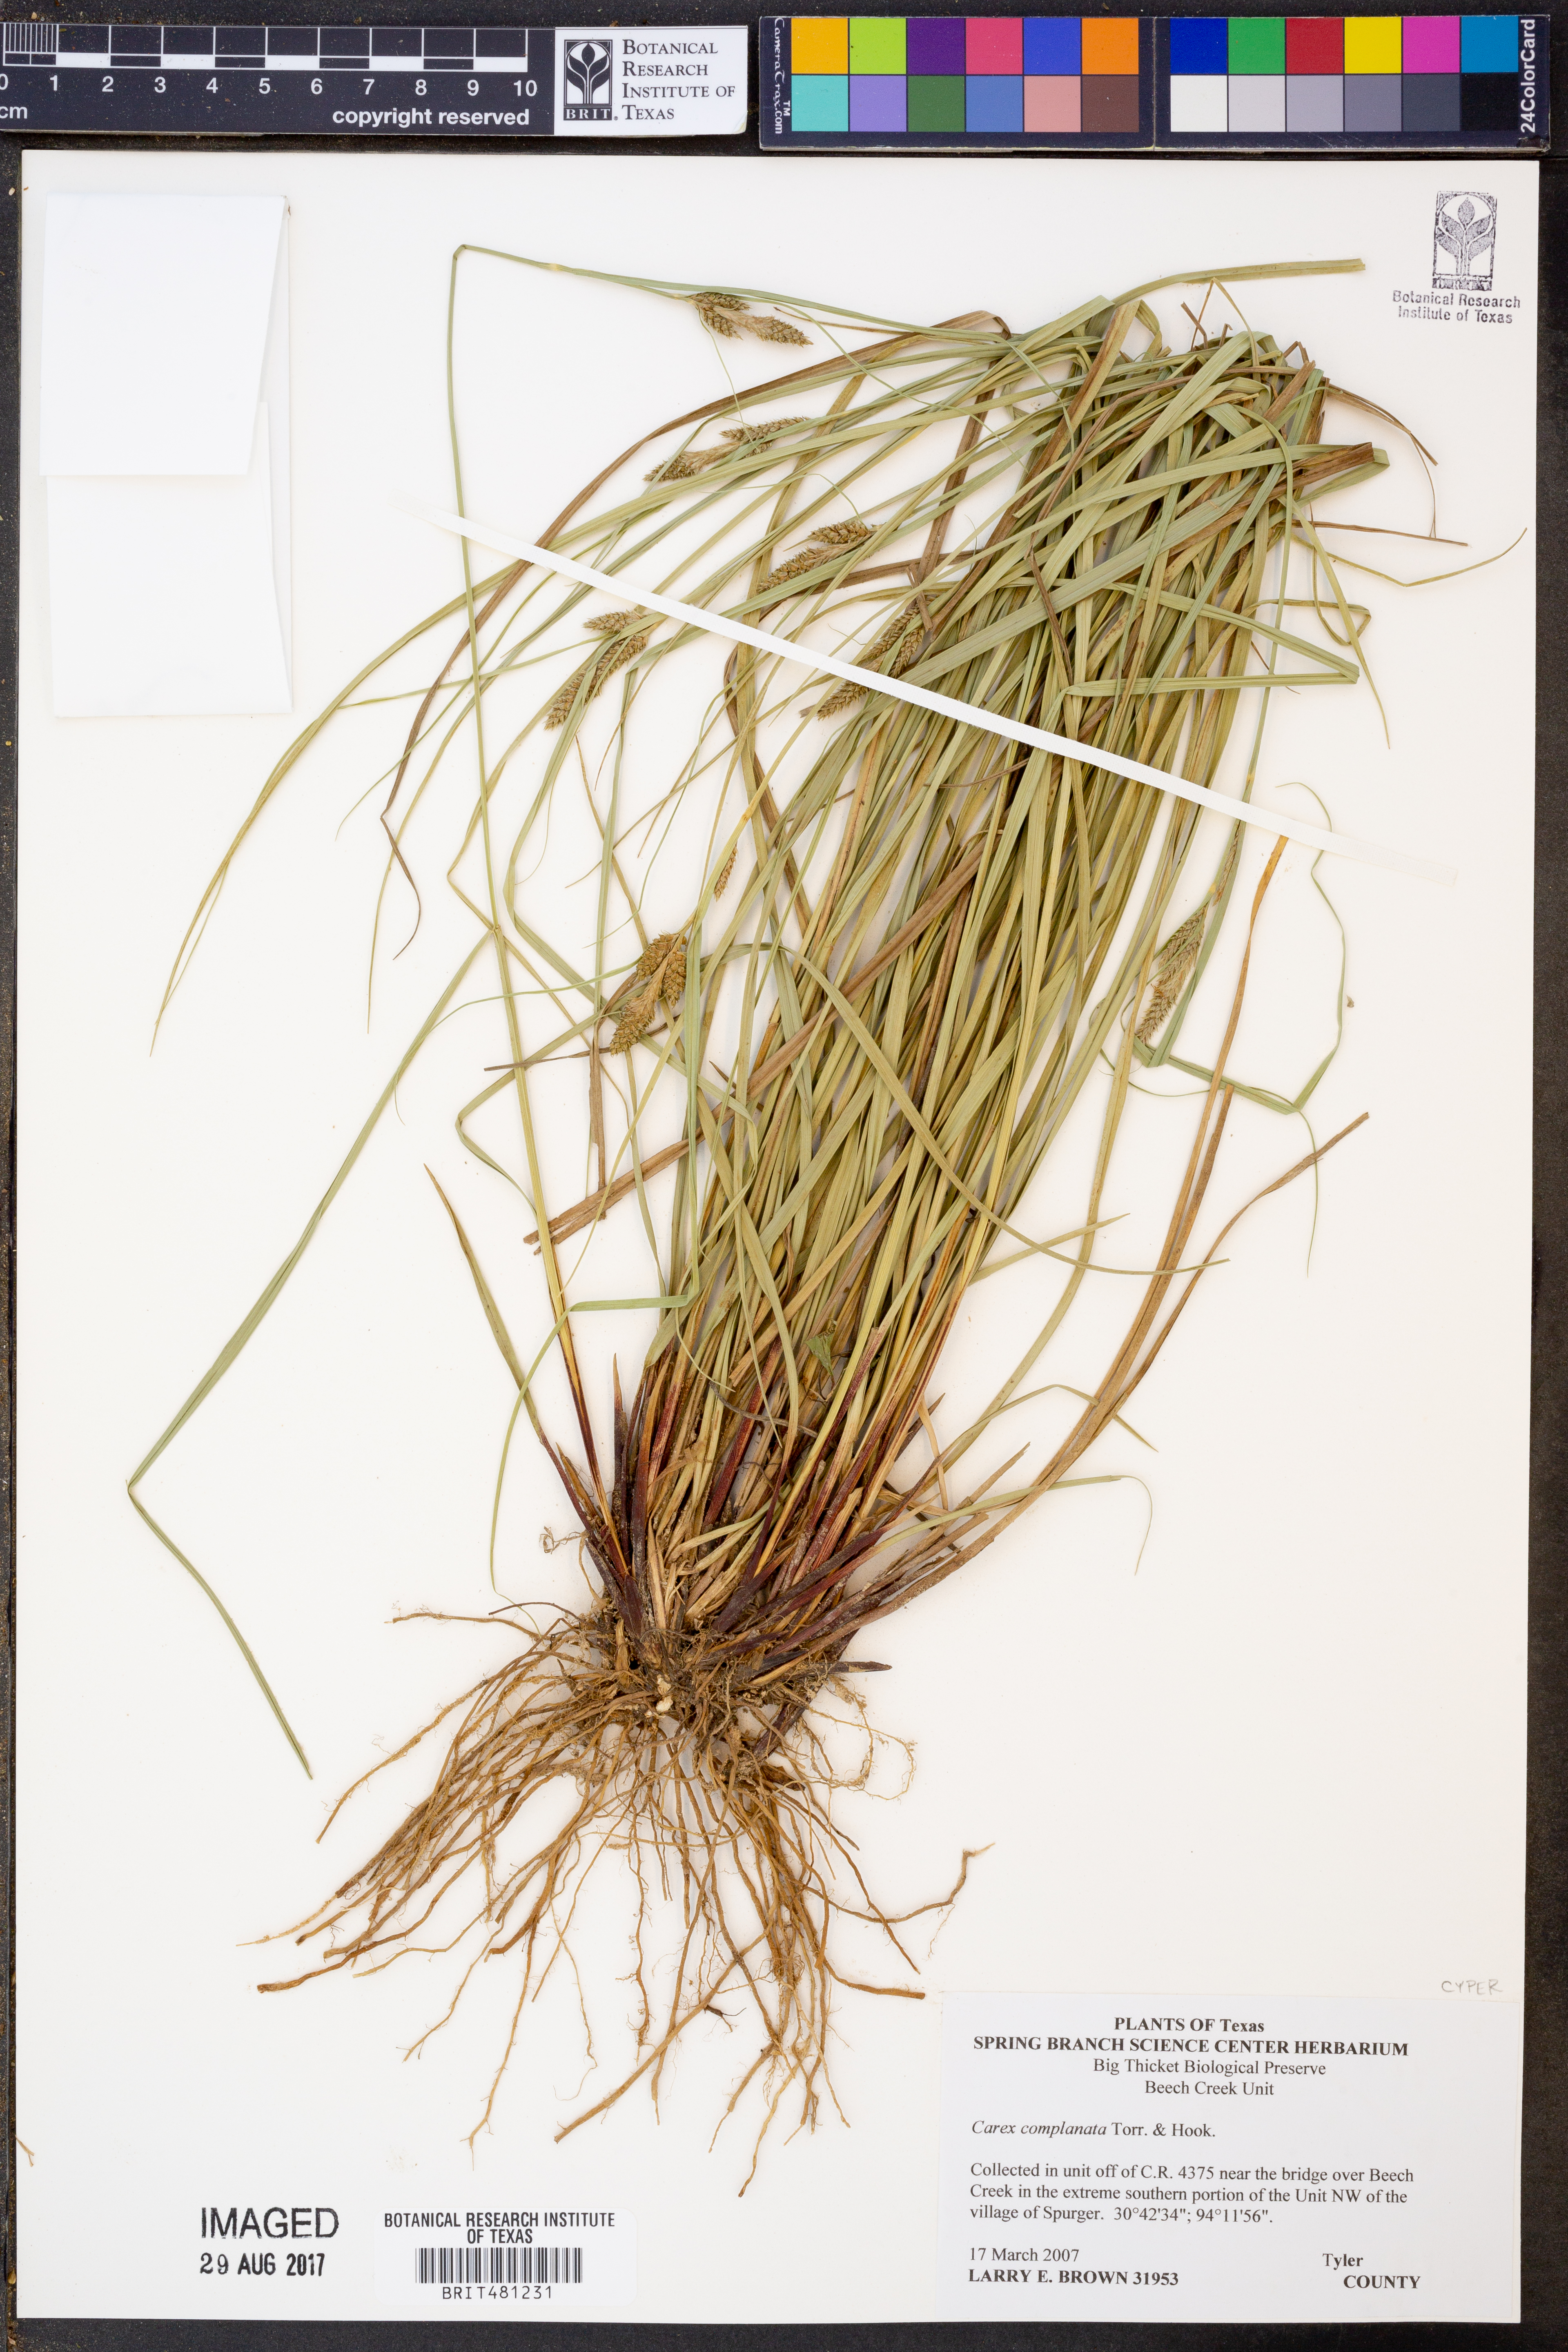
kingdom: Plantae
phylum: Tracheophyta
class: Liliopsida
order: Poales
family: Cyperaceae
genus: Carex
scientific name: Carex complanata
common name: Hirsute sedge
